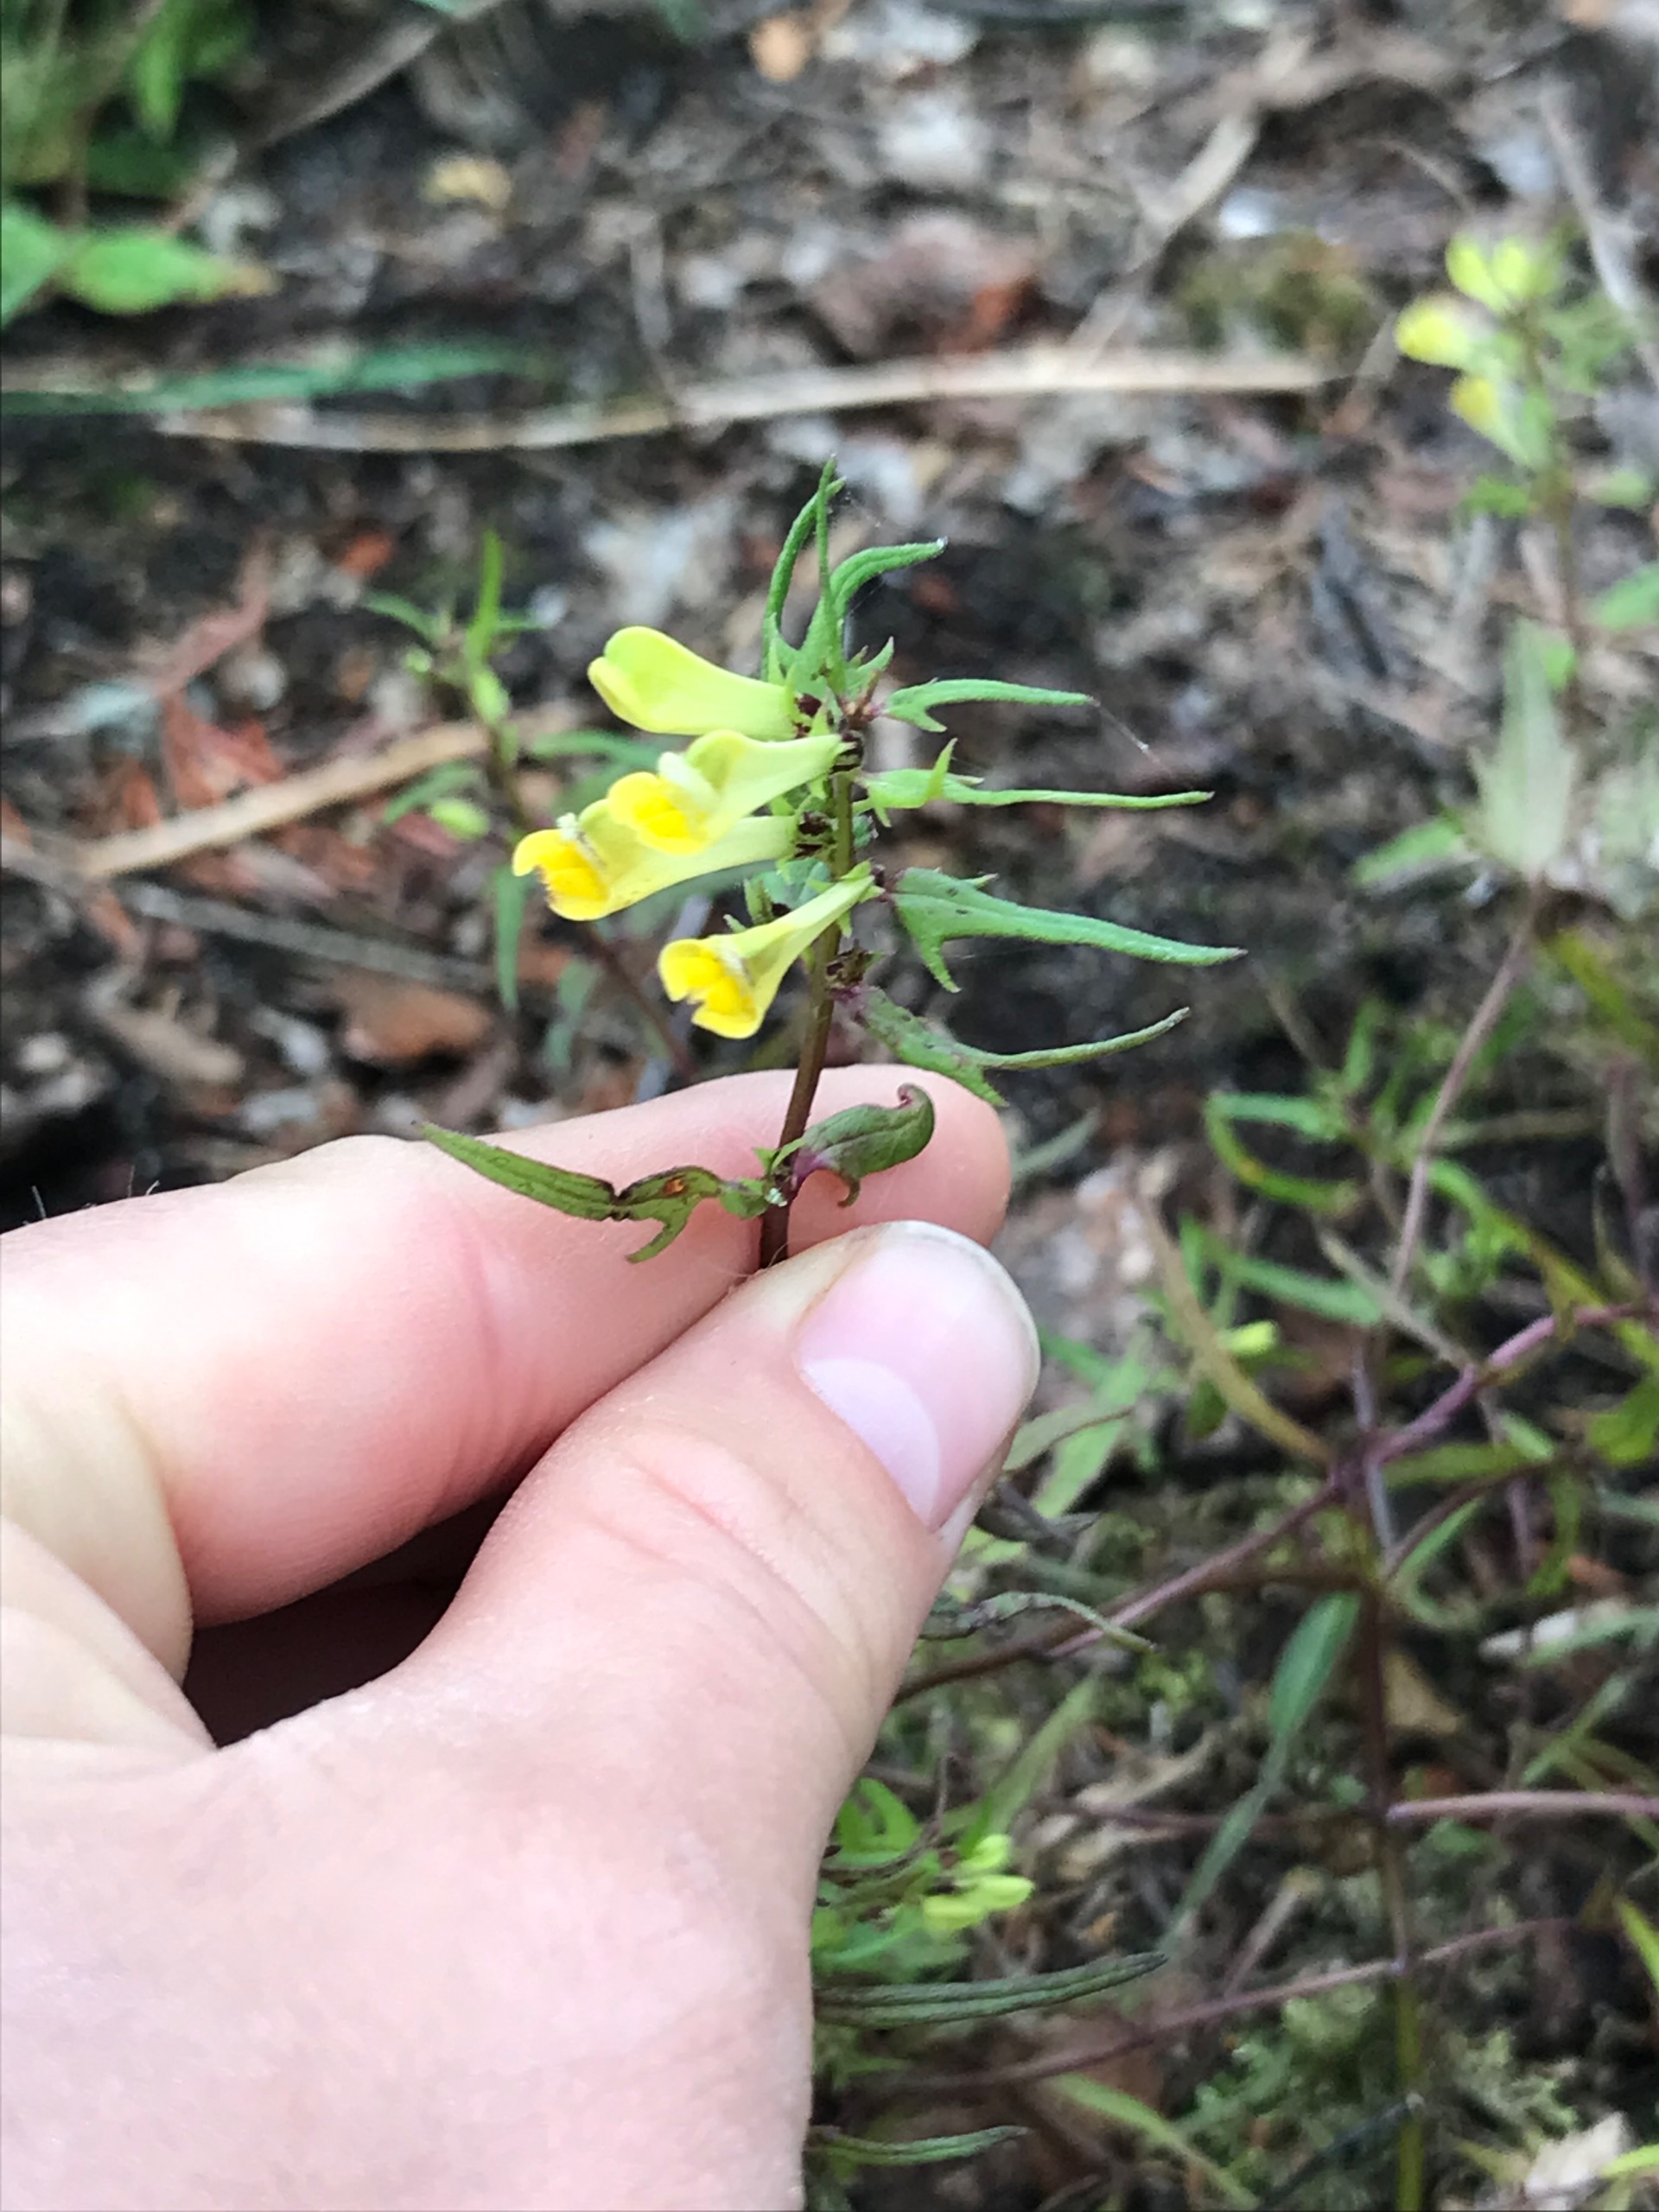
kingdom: Plantae
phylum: Tracheophyta
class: Magnoliopsida
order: Lamiales
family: Orobanchaceae
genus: Melampyrum
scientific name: Melampyrum pratense
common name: Almindelig kohvede
